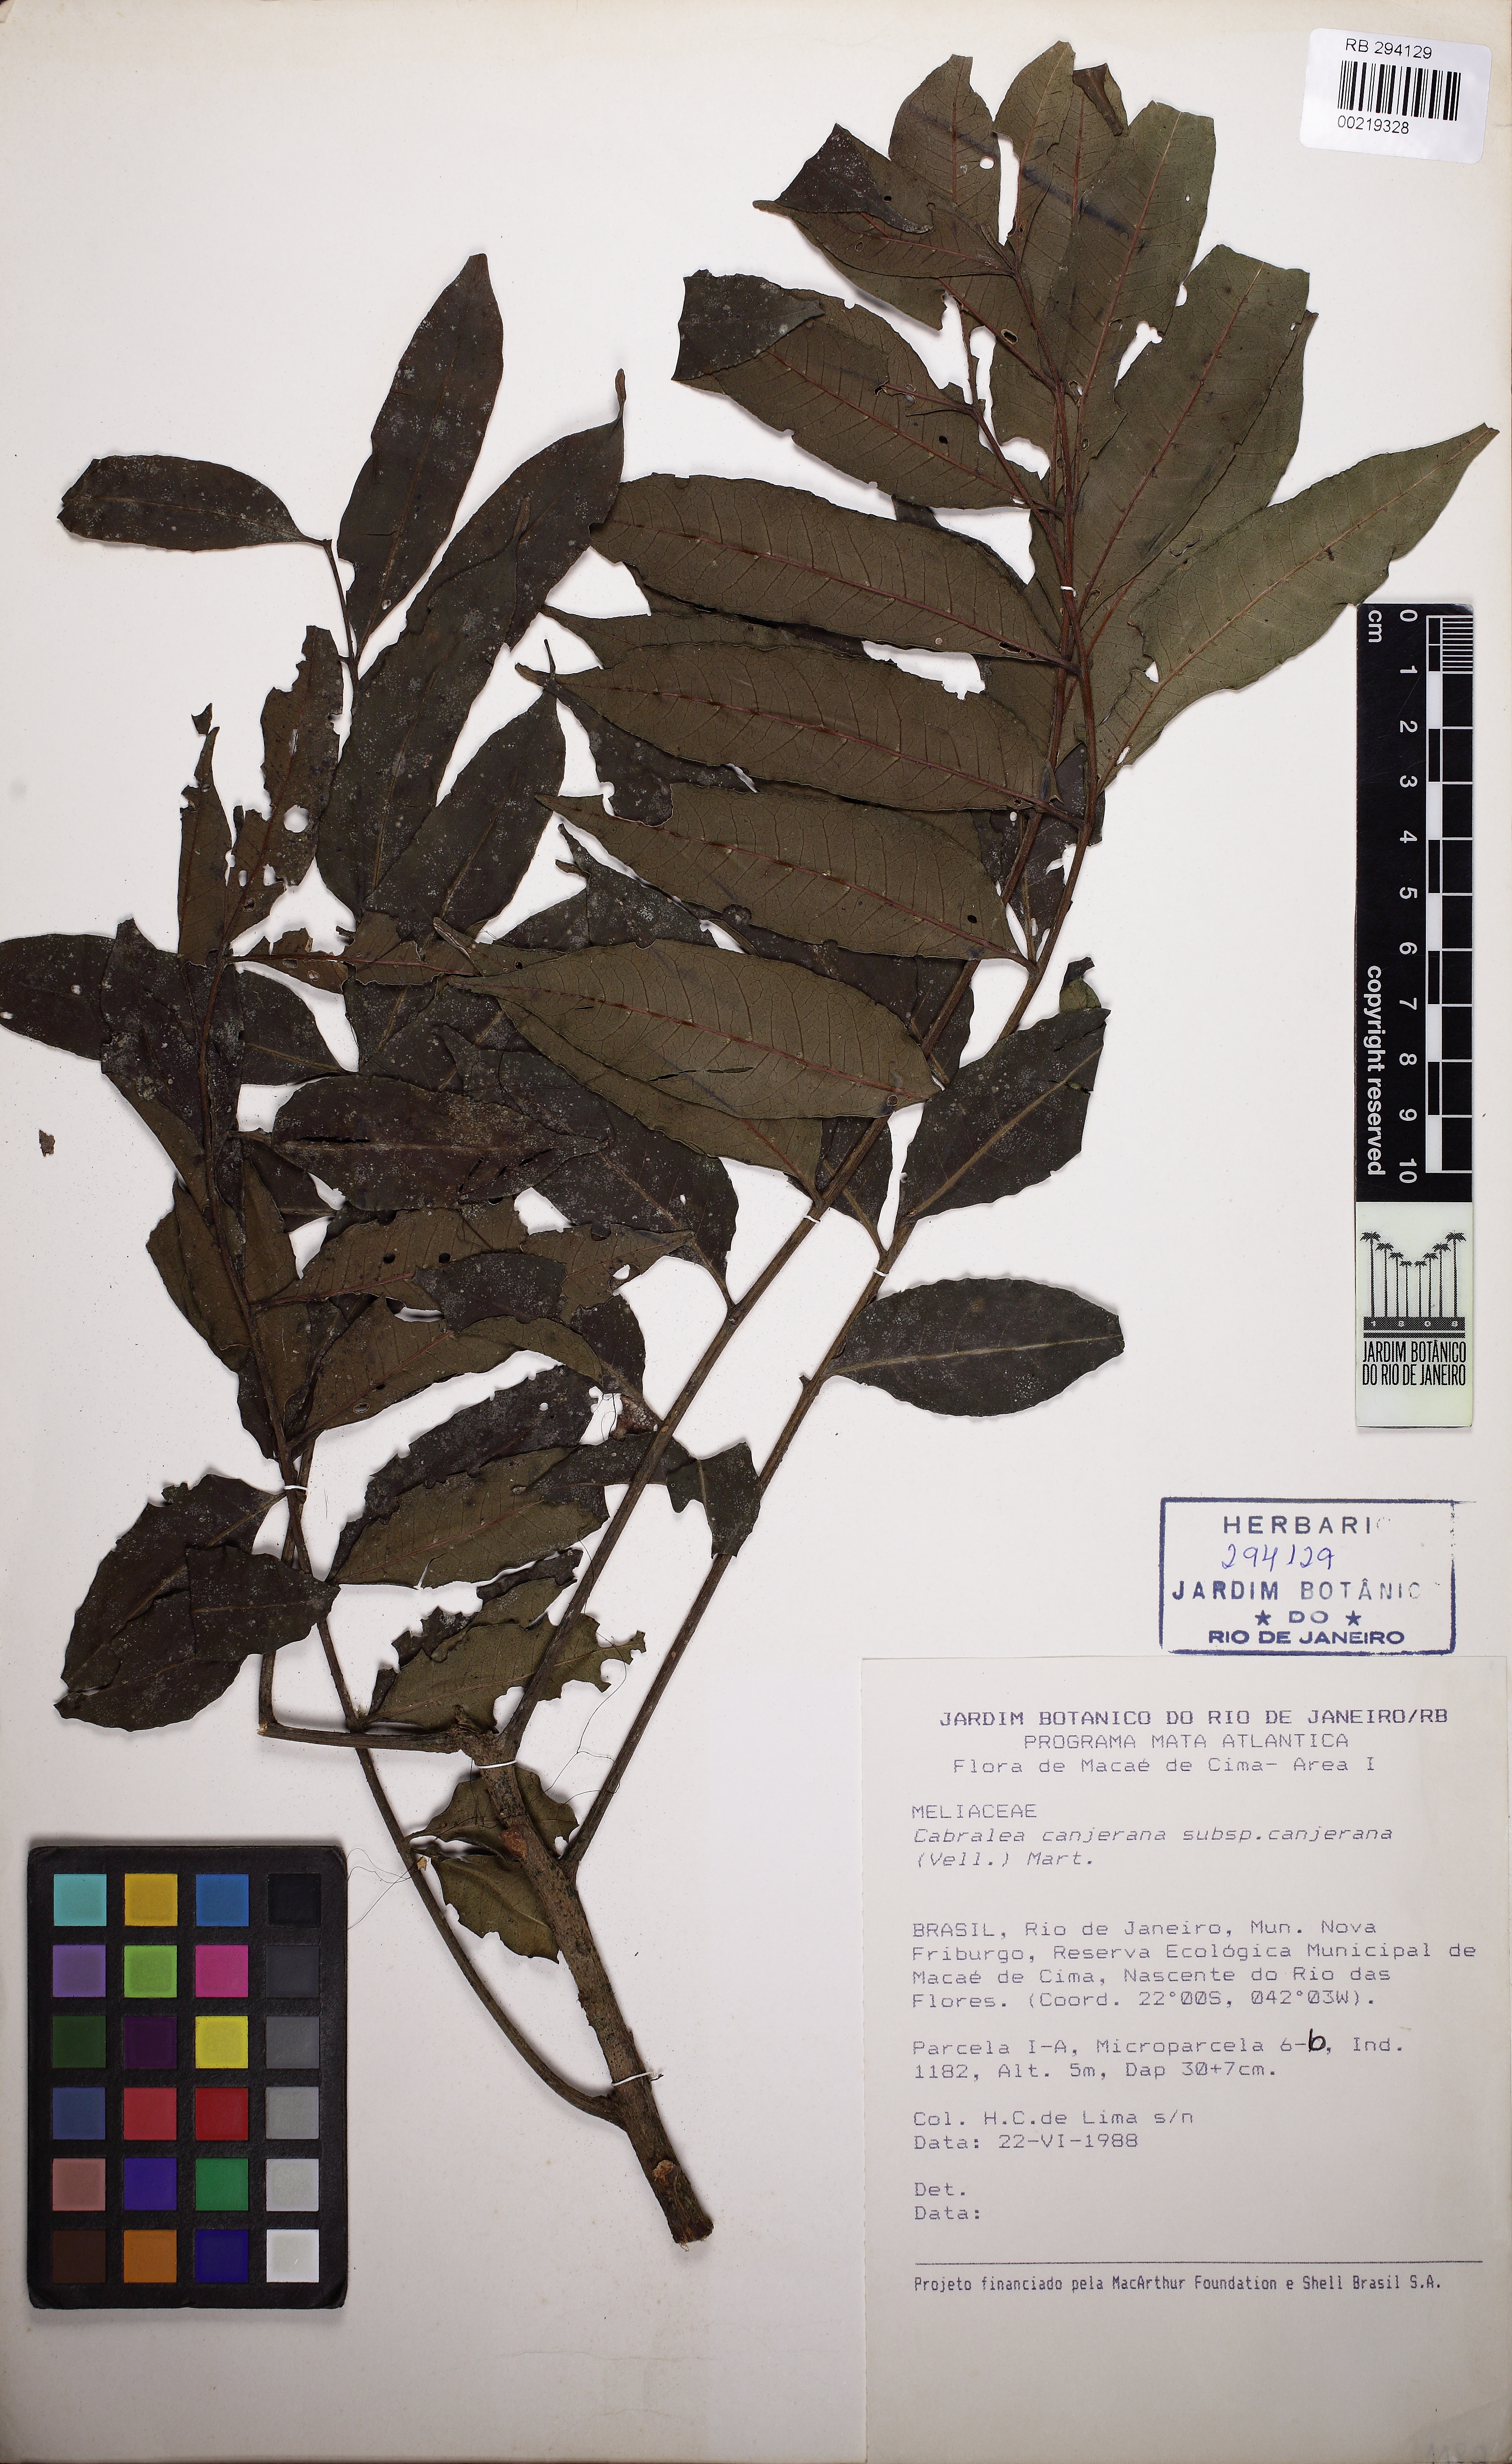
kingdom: Plantae
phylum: Tracheophyta
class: Magnoliopsida
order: Sapindales
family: Meliaceae
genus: Cabralea
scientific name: Cabralea canjerana
